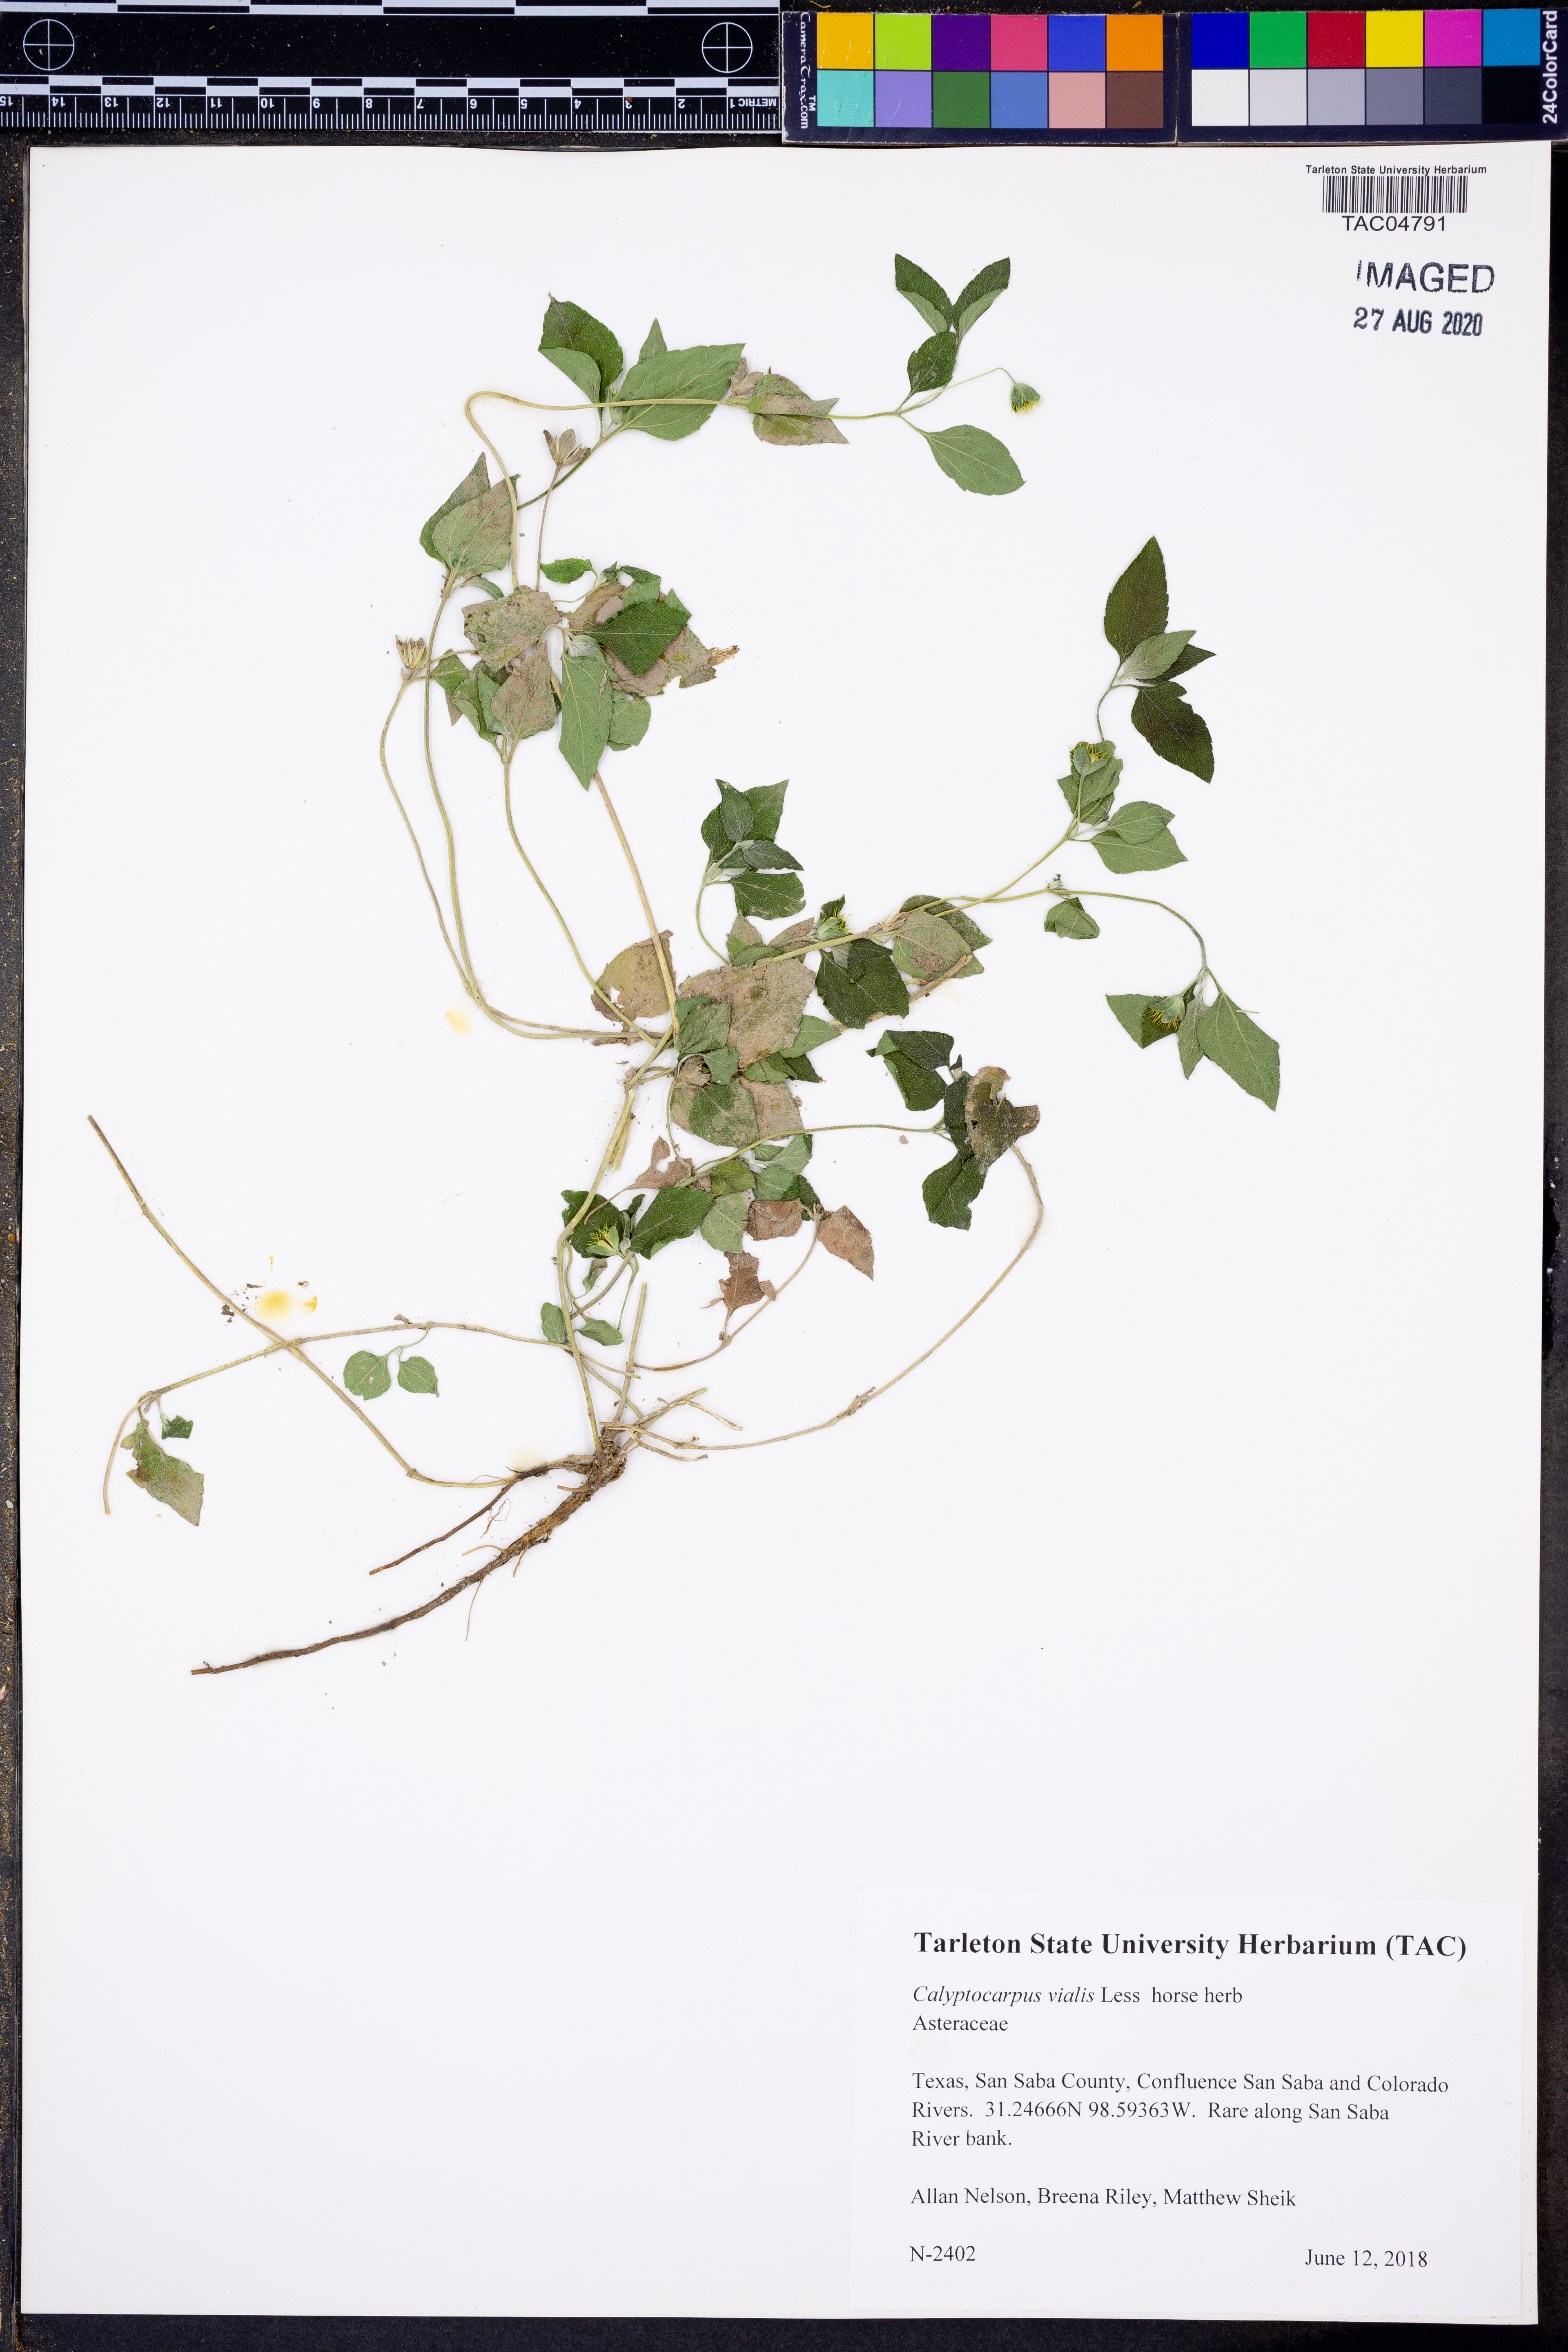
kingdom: Plantae
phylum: Tracheophyta
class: Magnoliopsida
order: Asterales
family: Asteraceae
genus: Calyptocarpus
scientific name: Calyptocarpus vialis
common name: Straggler daisy
